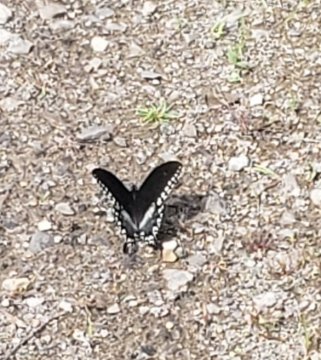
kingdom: Animalia
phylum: Arthropoda
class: Insecta
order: Lepidoptera
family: Papilionidae
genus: Pterourus
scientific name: Pterourus troilus
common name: Spicebush Swallowtail
